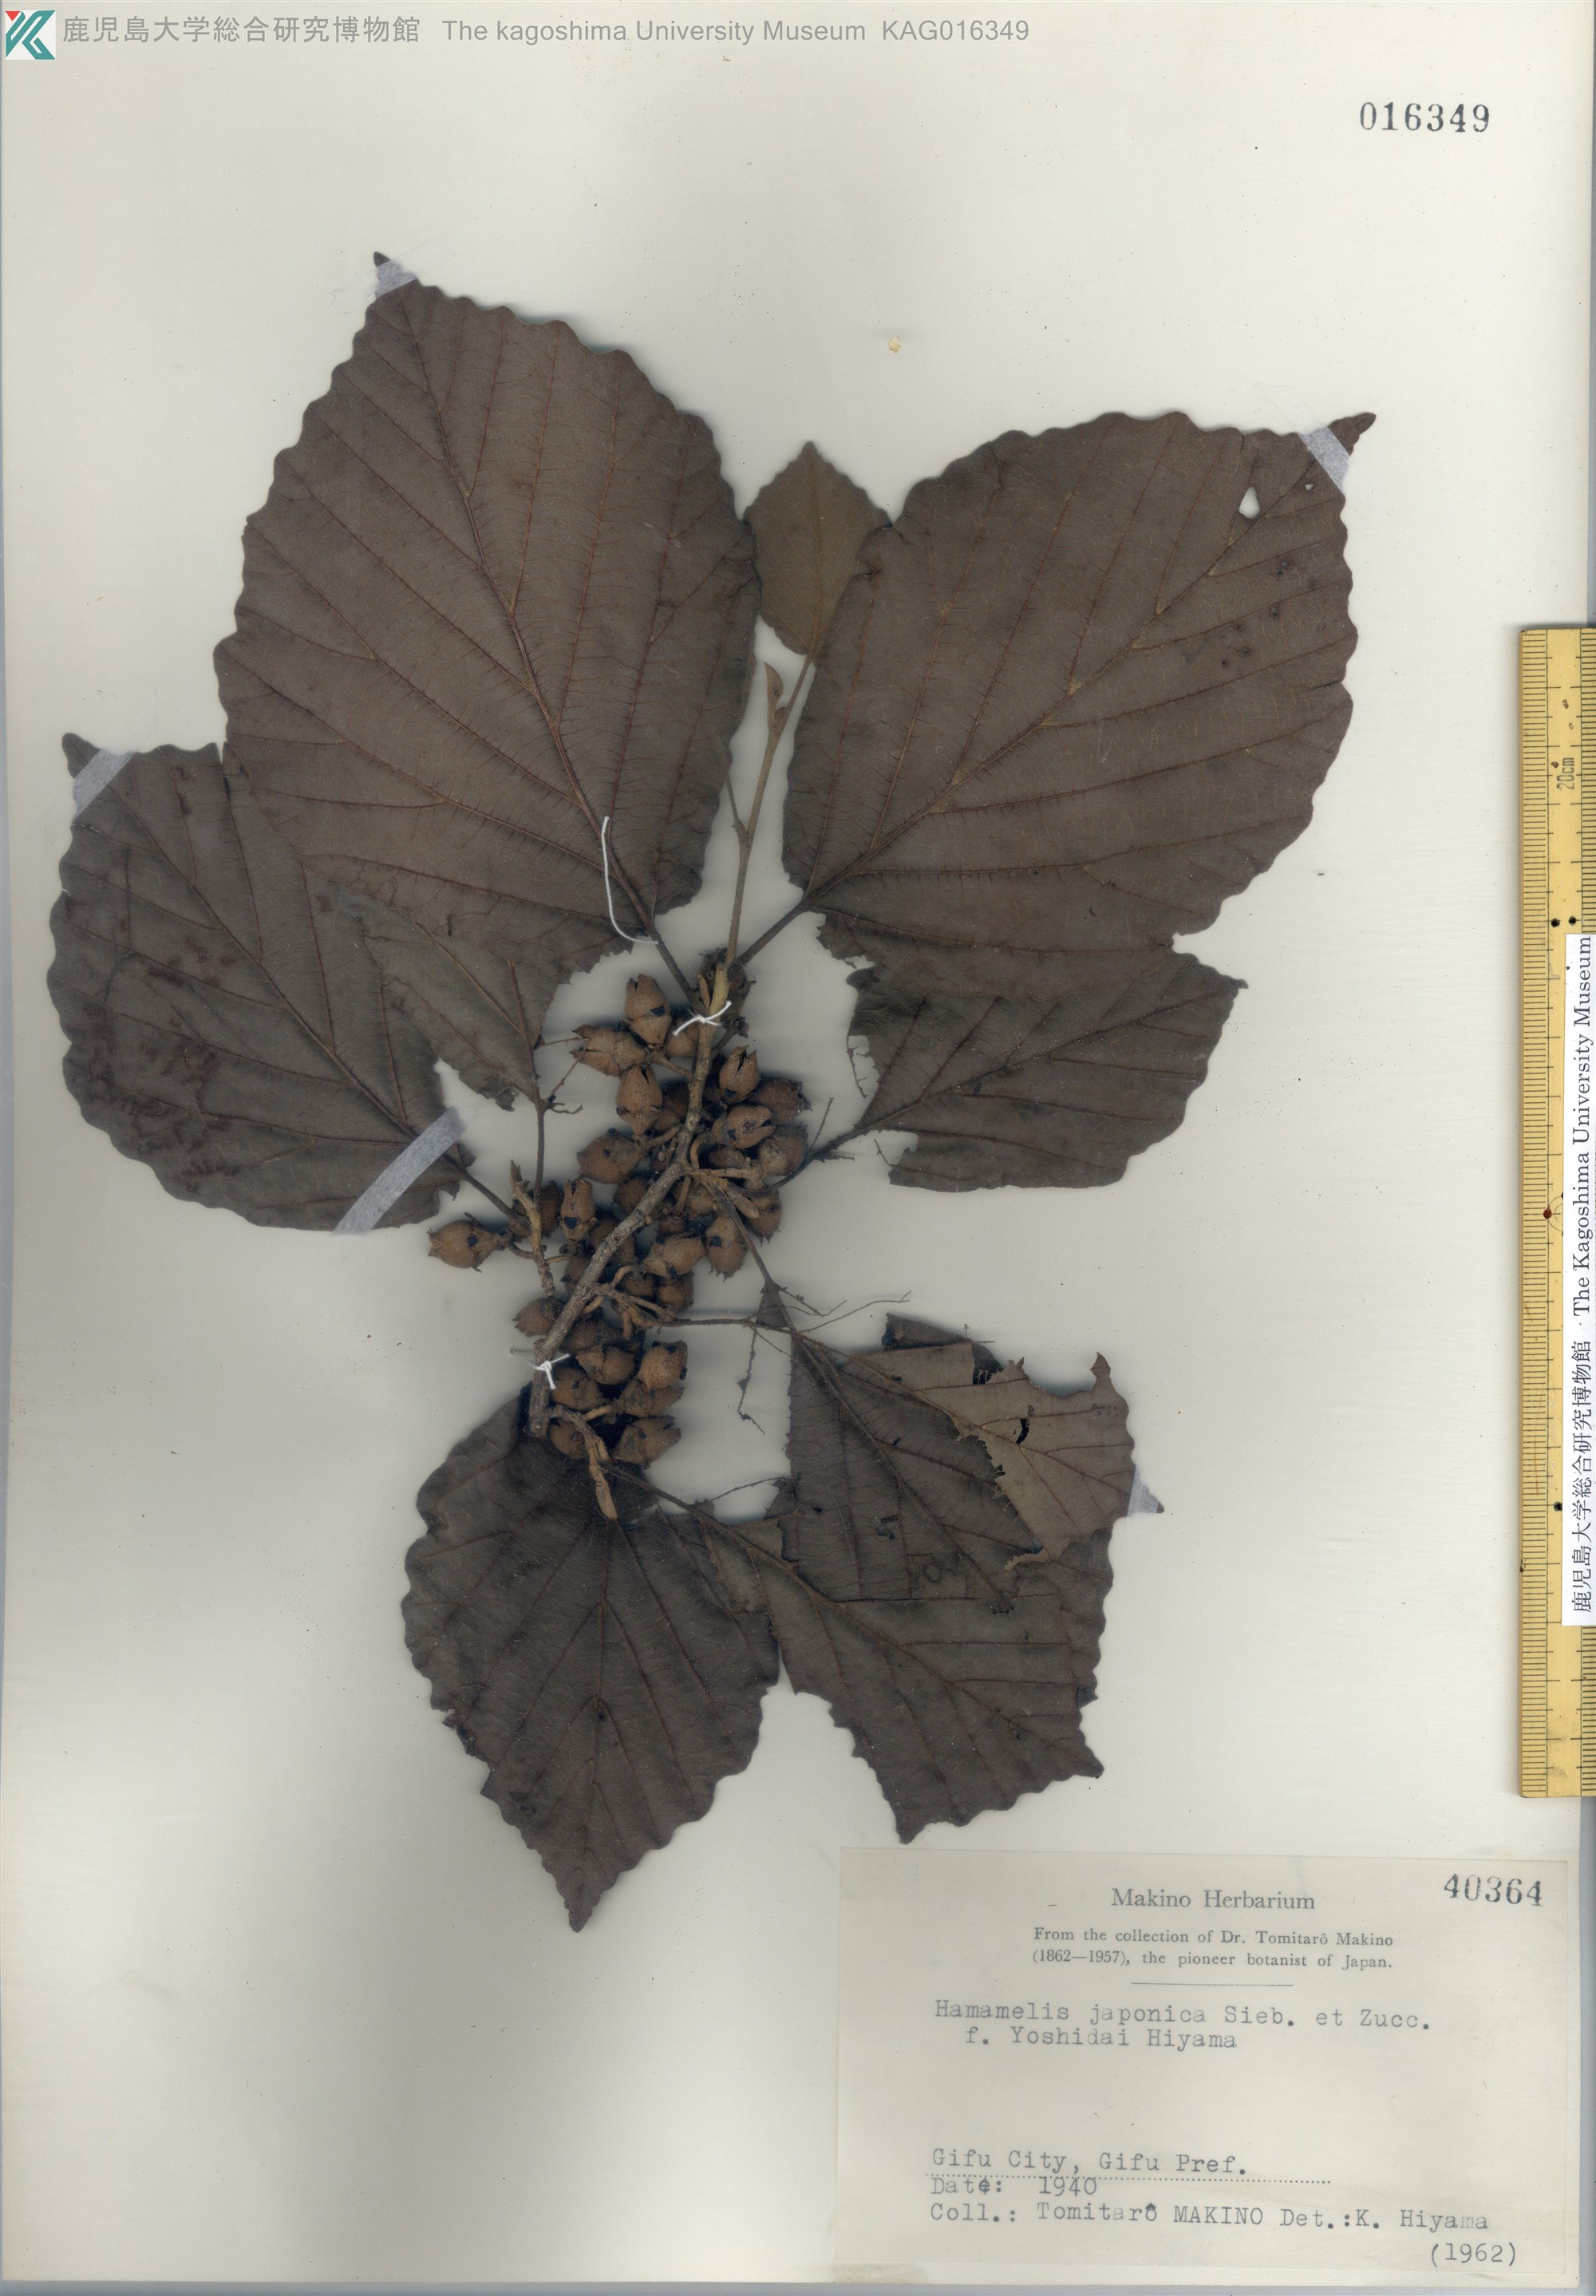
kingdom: Plantae
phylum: Tracheophyta
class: Magnoliopsida
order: Saxifragales
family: Hamamelidaceae
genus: Hamamelis
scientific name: Hamamelis
